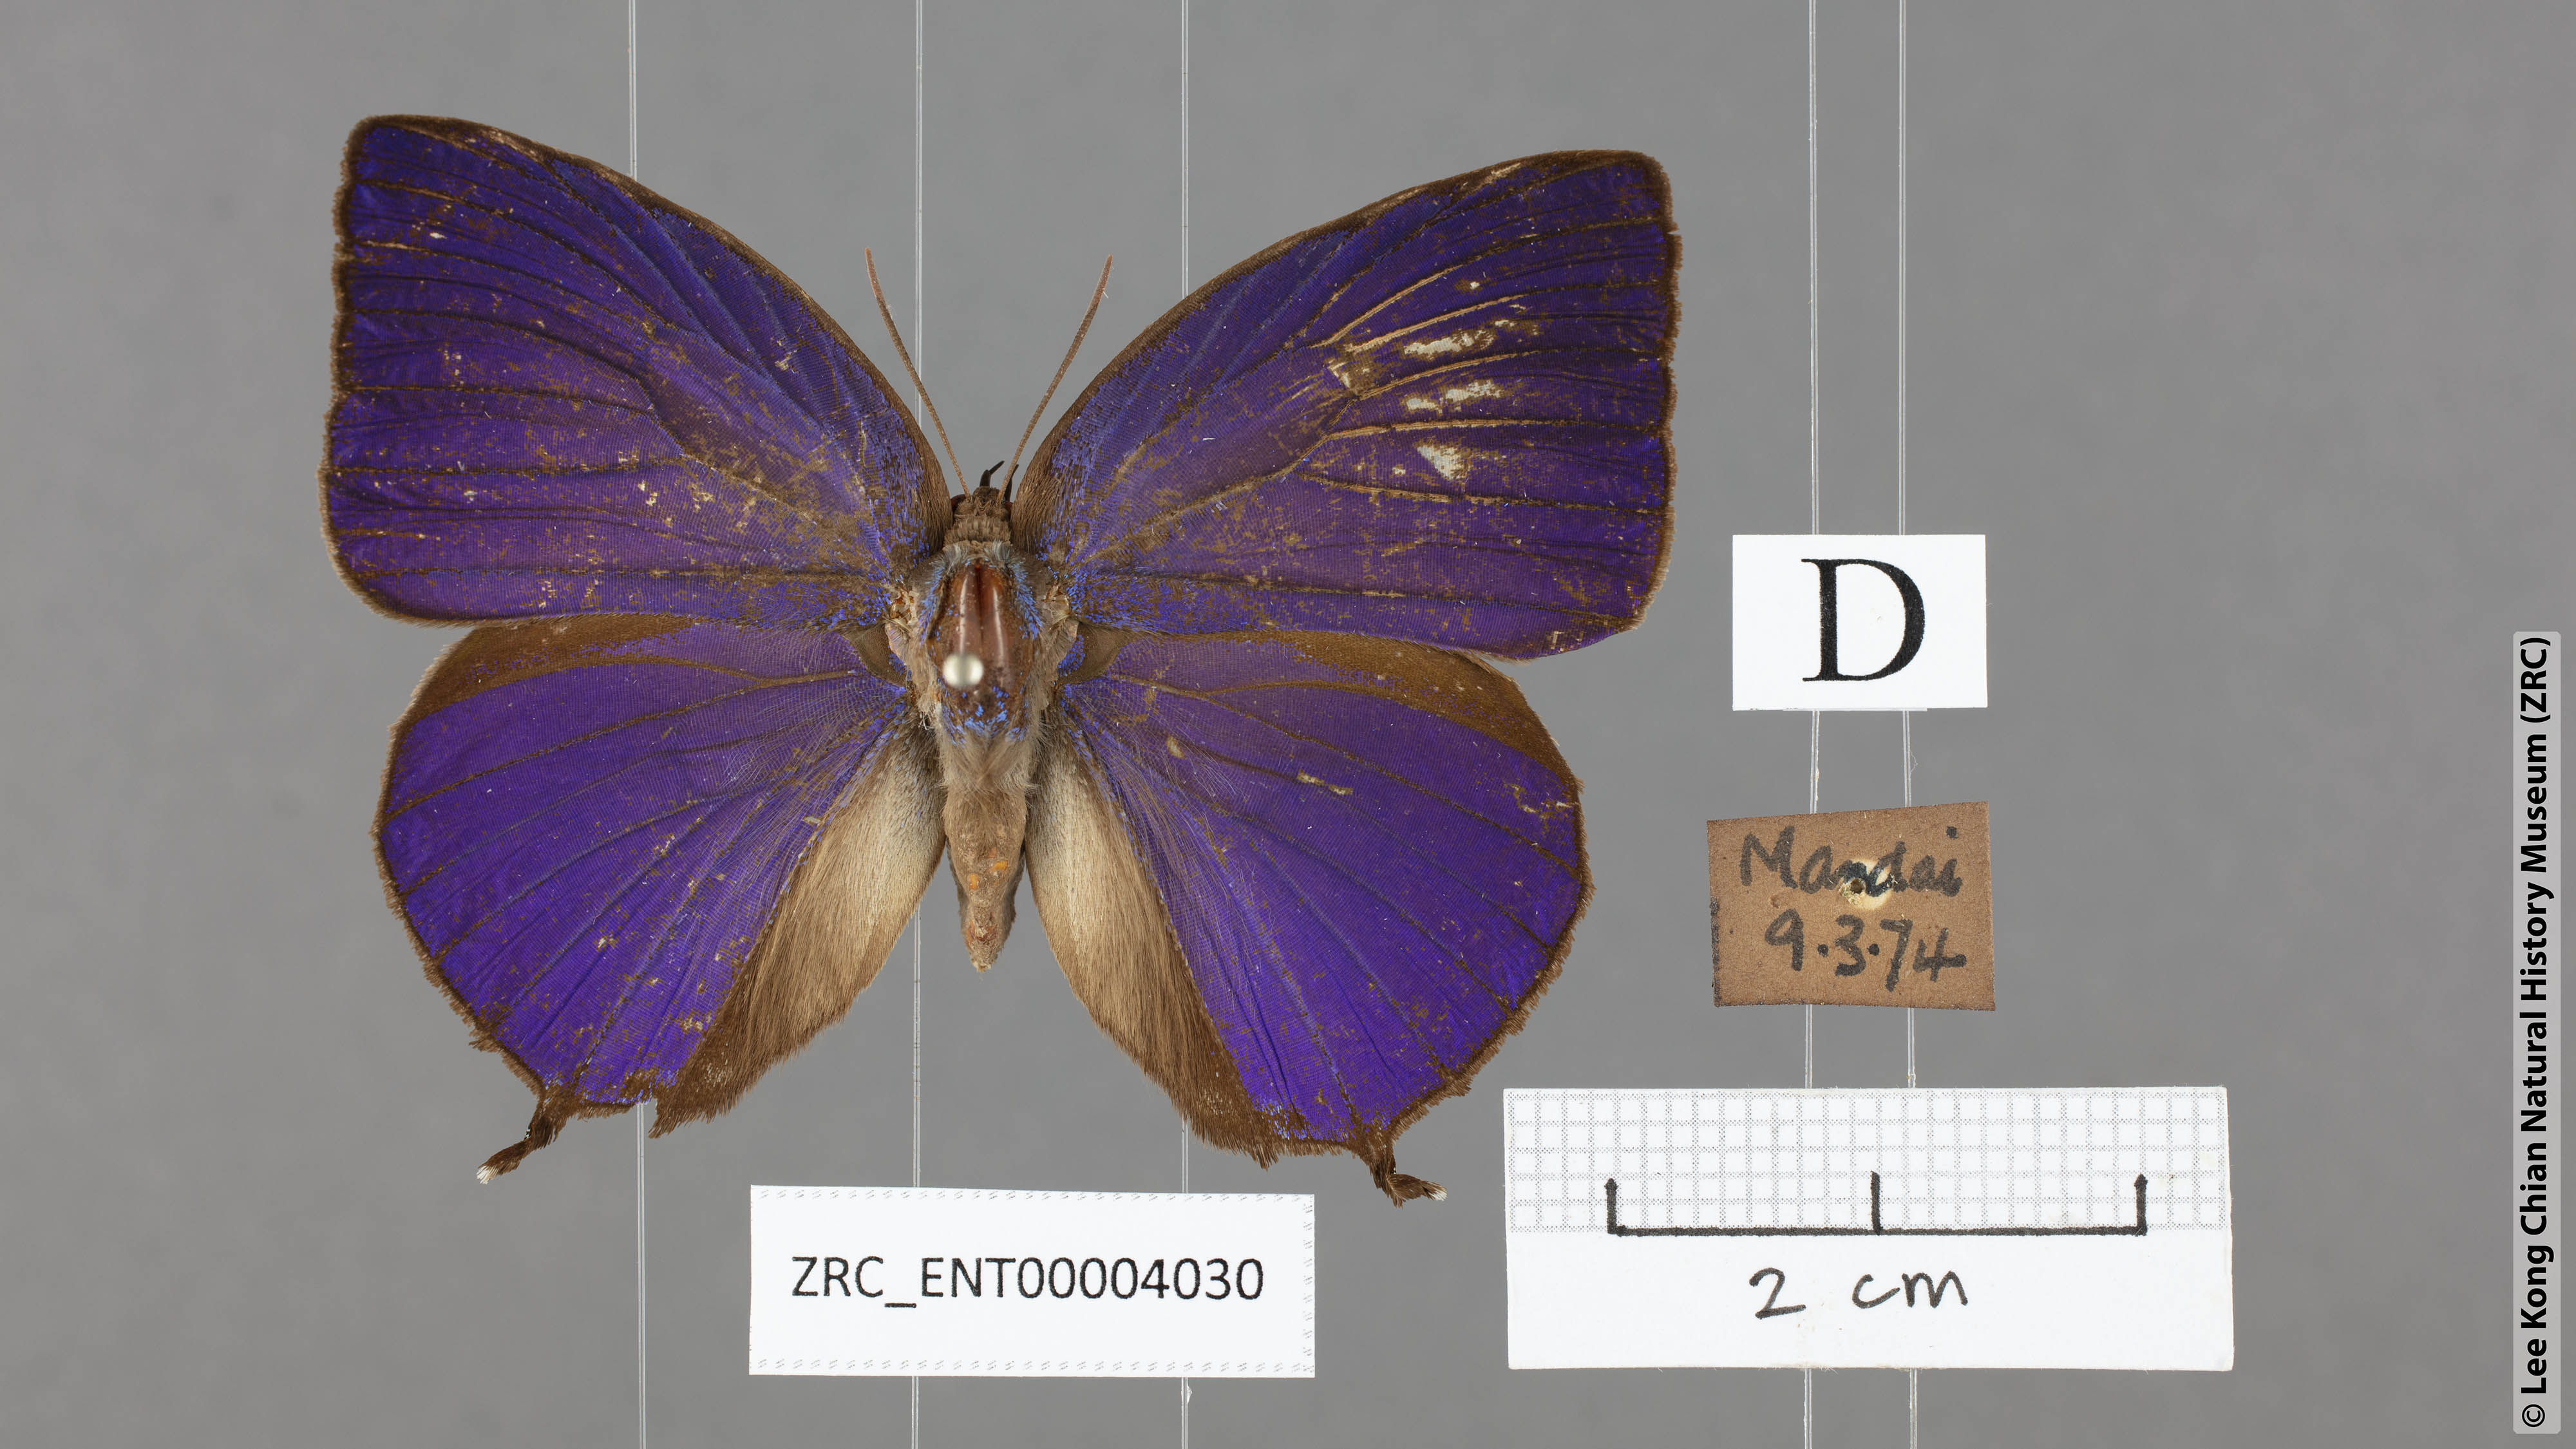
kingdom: Animalia
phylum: Arthropoda
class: Insecta
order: Lepidoptera
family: Lycaenidae
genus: Arhopala
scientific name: Arhopala centaurus
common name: Dull oak-blue
